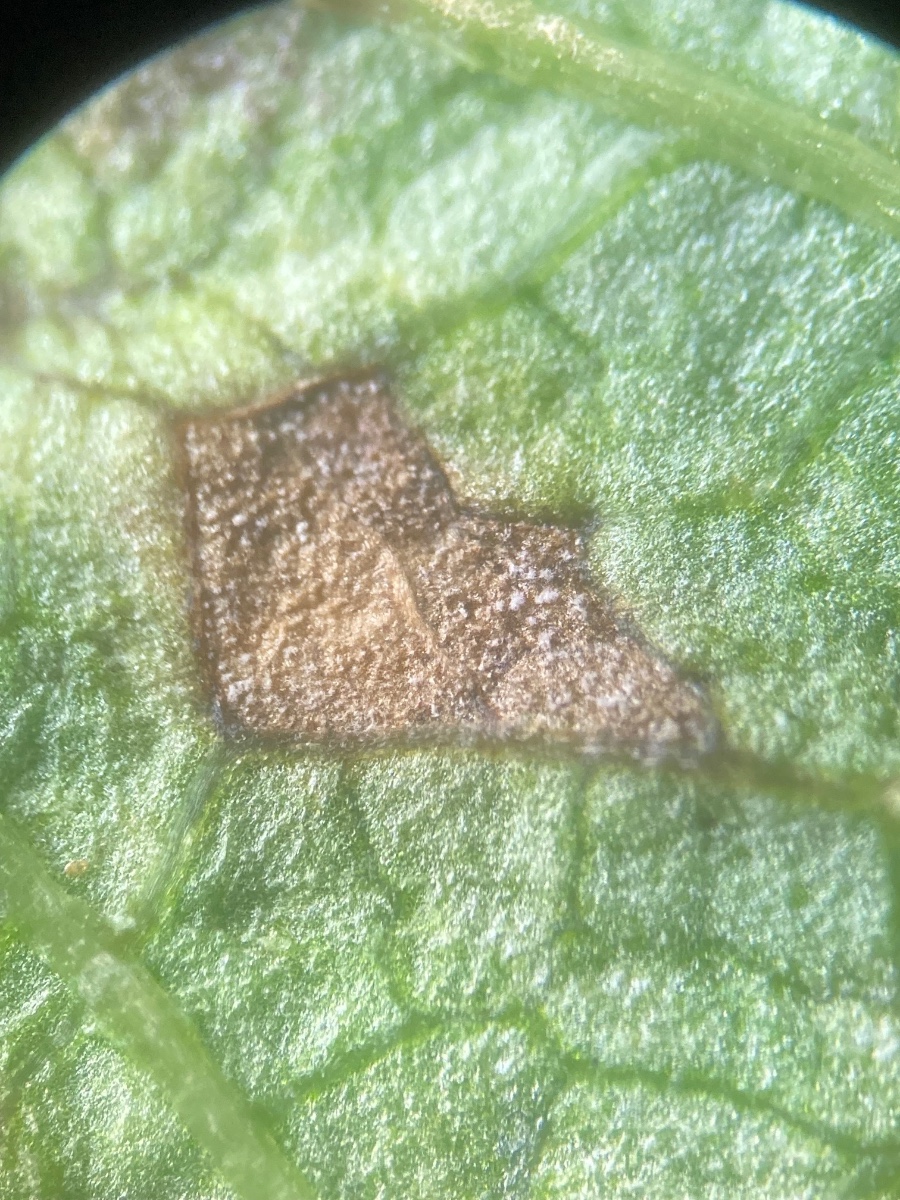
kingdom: Fungi
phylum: Ascomycota
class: Dothideomycetes
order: Mycosphaerellales
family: Mycosphaerellaceae
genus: Ramularia
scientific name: Ramularia carneola
